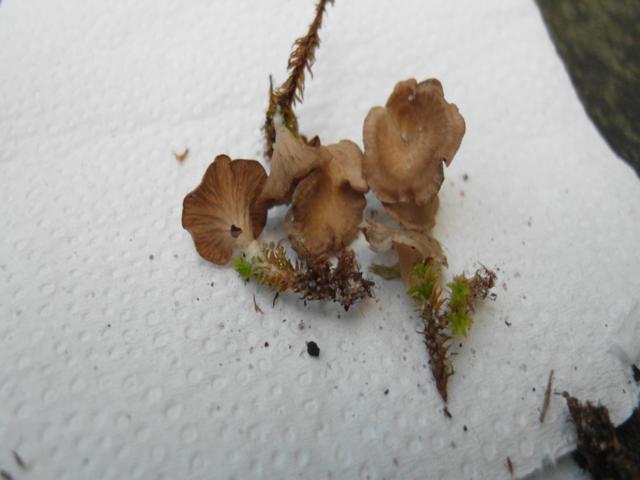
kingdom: Fungi
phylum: Basidiomycota
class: Agaricomycetes
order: Agaricales
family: Hygrophoraceae
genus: Arrhenia
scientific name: Arrhenia spathulata
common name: skæv fontænehat
